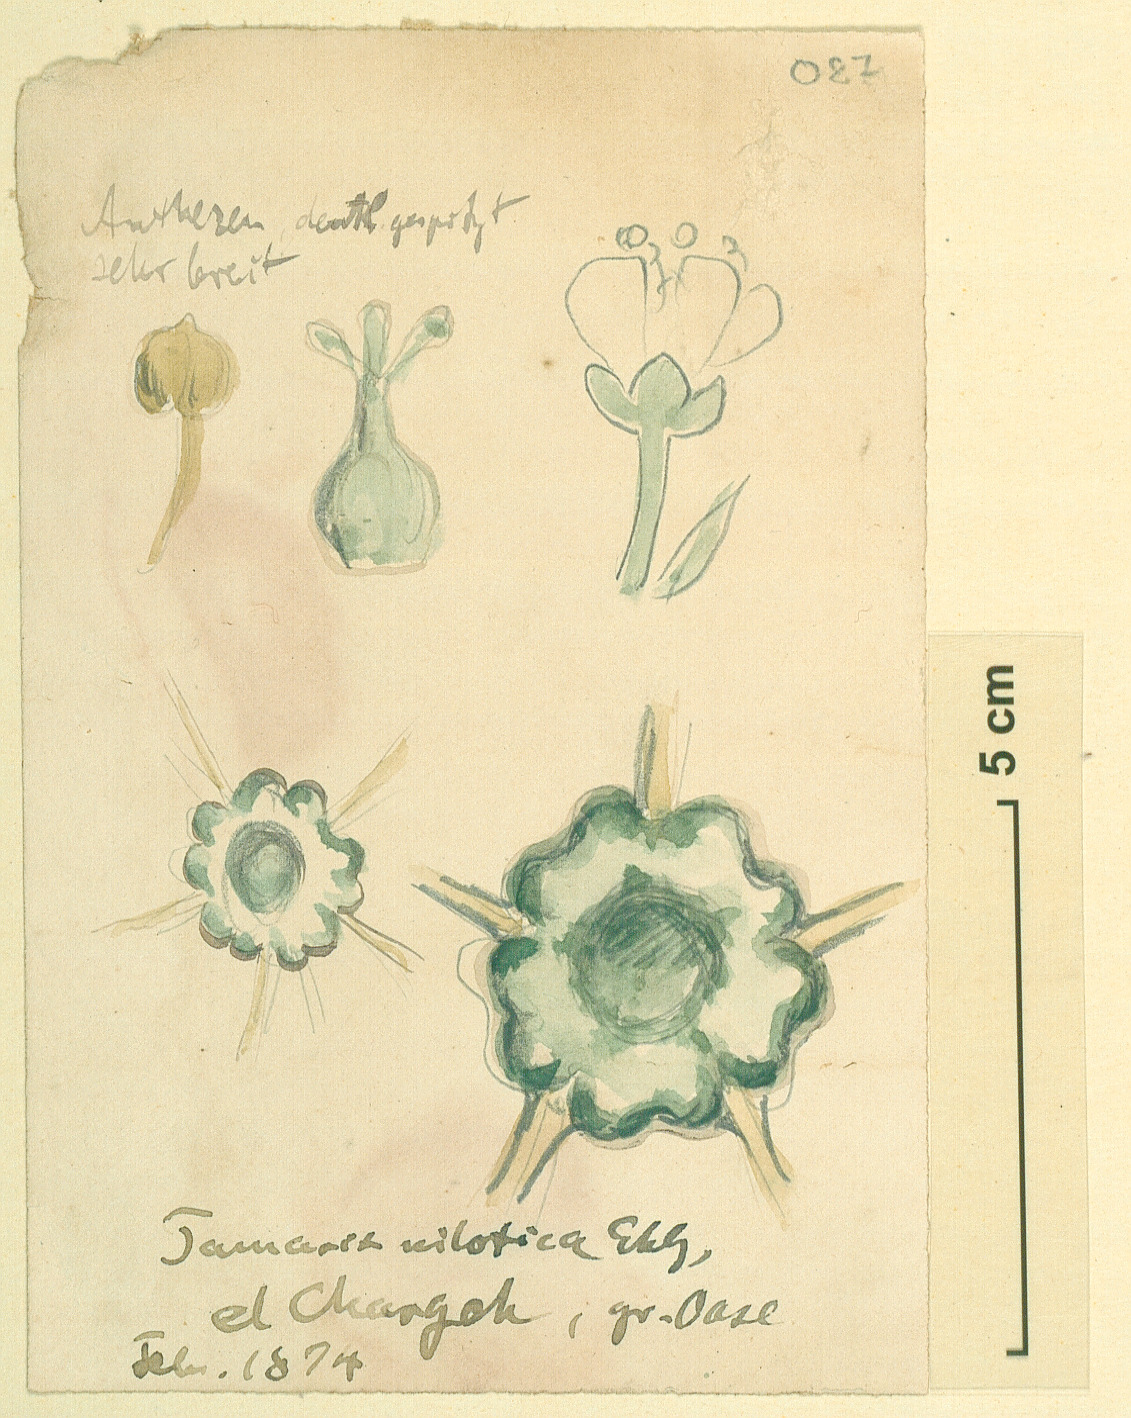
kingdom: Plantae
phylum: Tracheophyta
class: Magnoliopsida
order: Caryophyllales
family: Tamaricaceae
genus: Tamarix
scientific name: Tamarix nilotica
